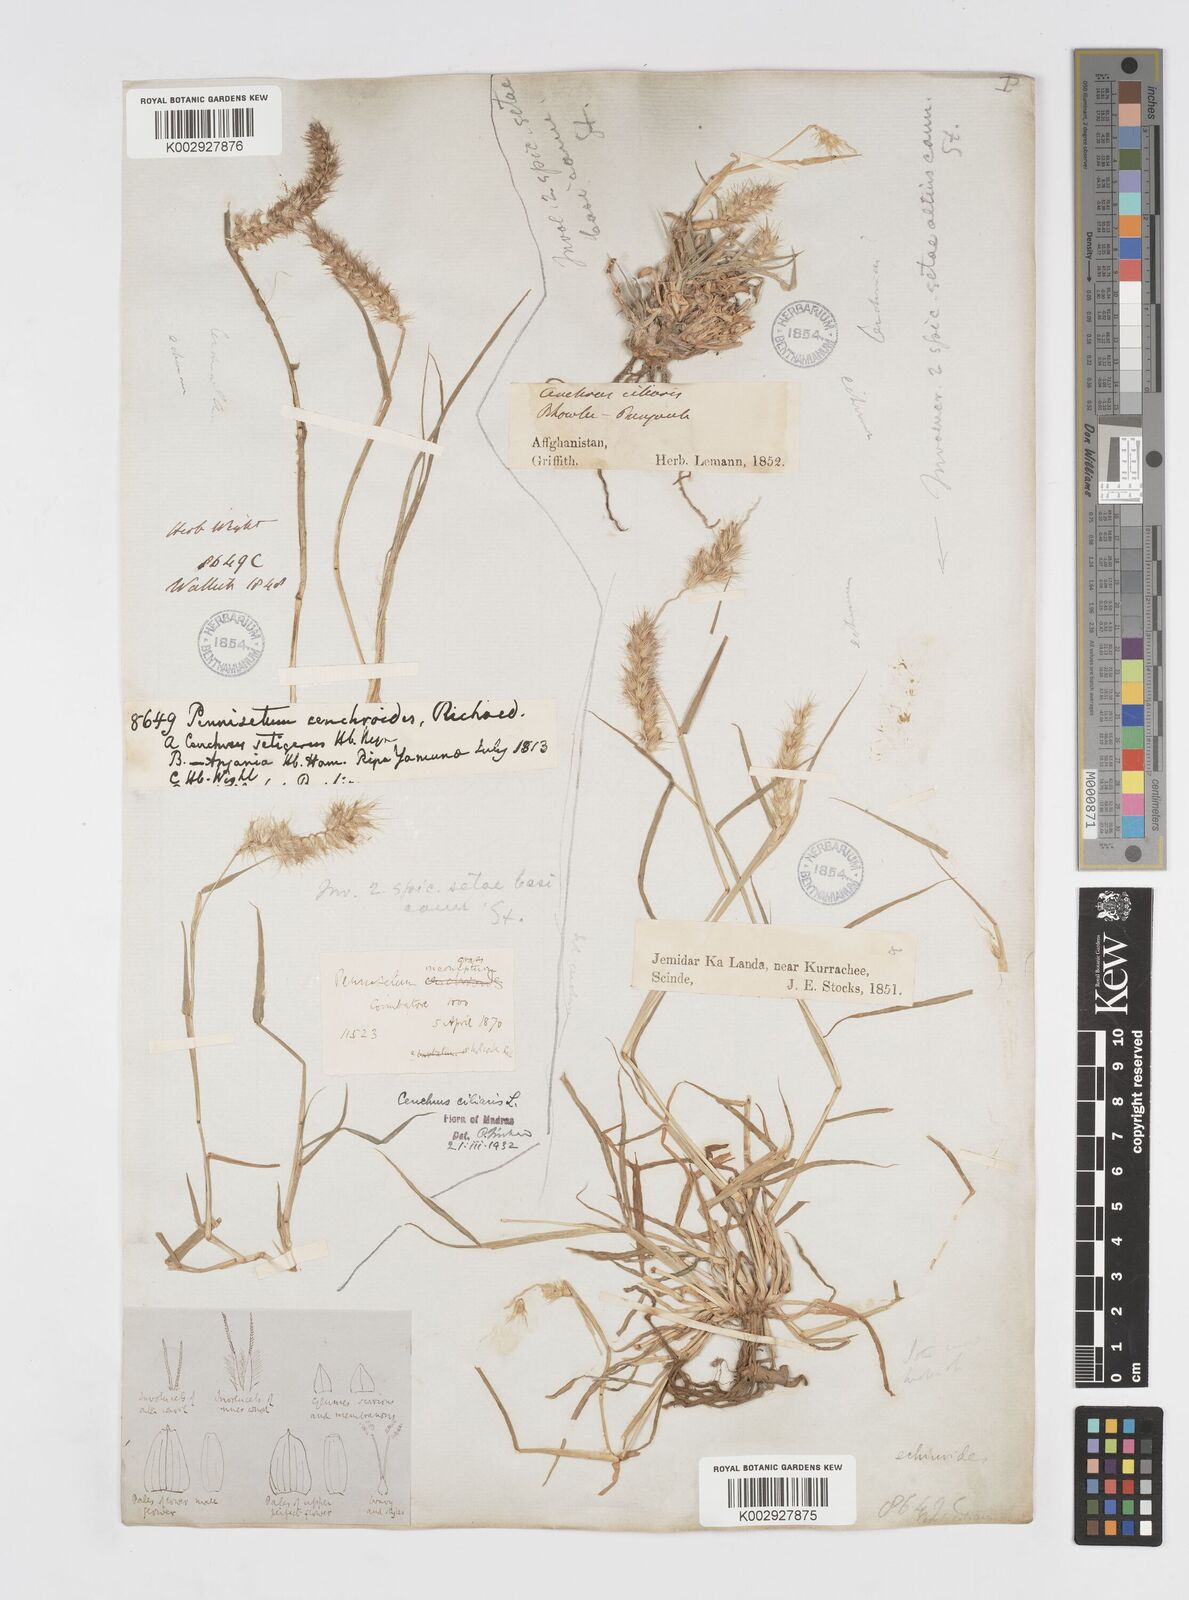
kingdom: Plantae
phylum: Tracheophyta
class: Liliopsida
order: Poales
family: Poaceae
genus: Cenchrus
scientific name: Cenchrus ciliaris
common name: Buffelgrass
